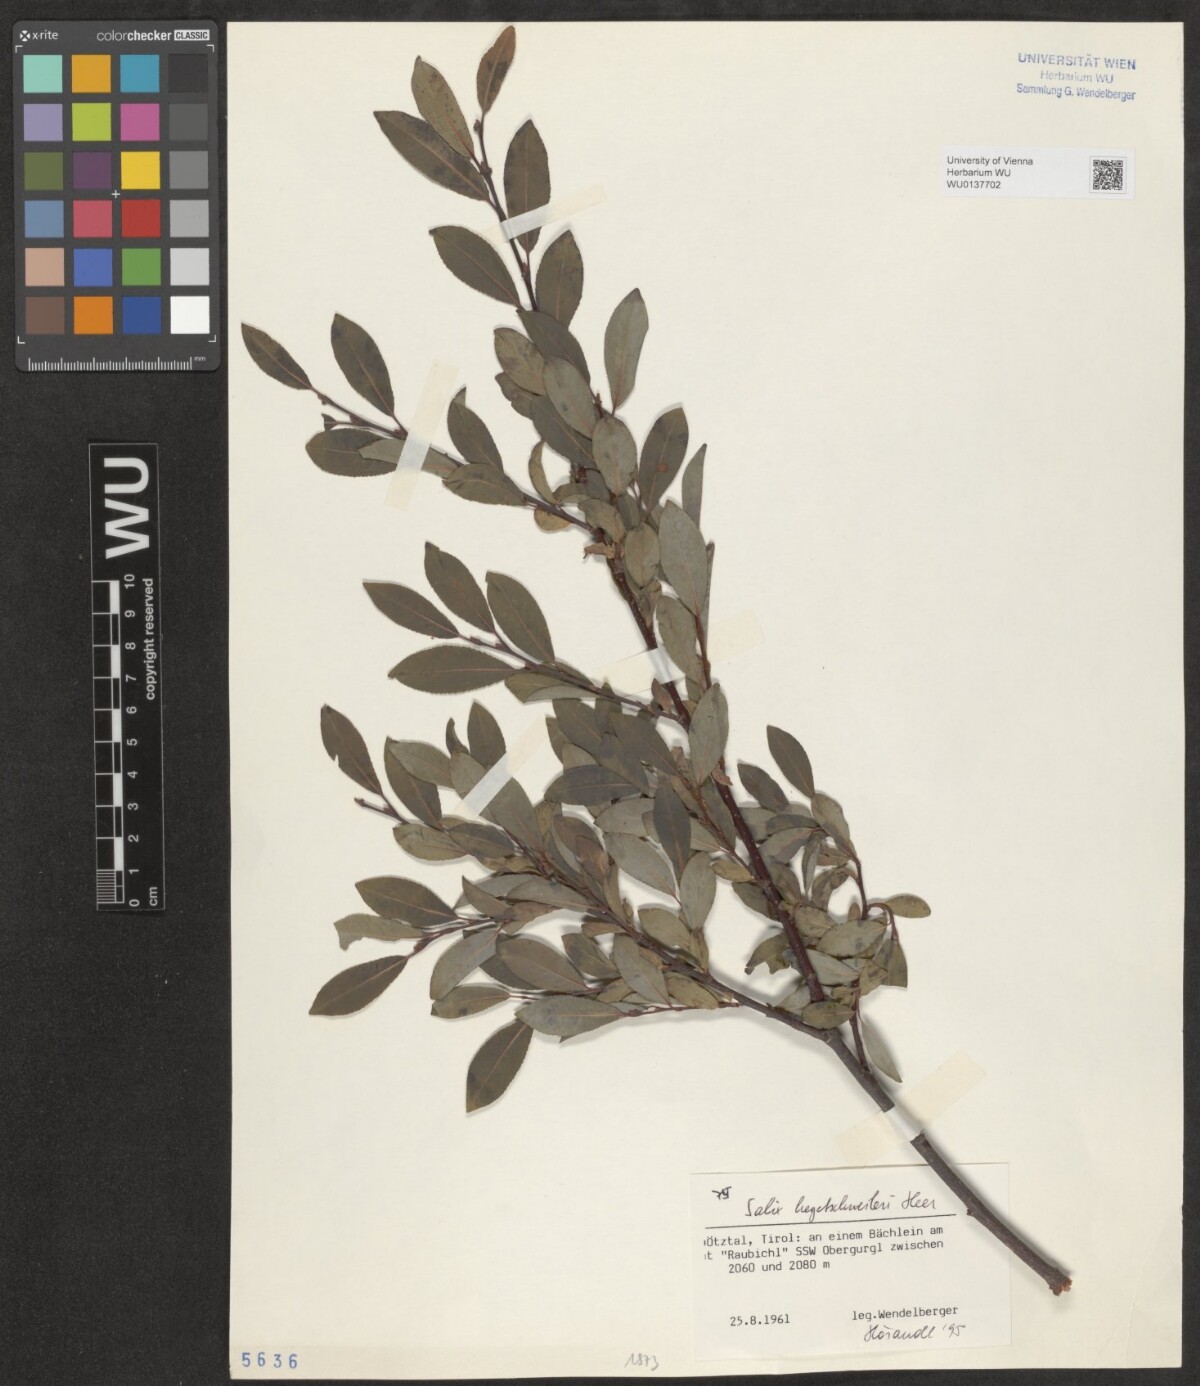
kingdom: Plantae
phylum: Tracheophyta
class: Magnoliopsida
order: Malpighiales
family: Salicaceae
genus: Salix
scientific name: Salix hegetschweileri
